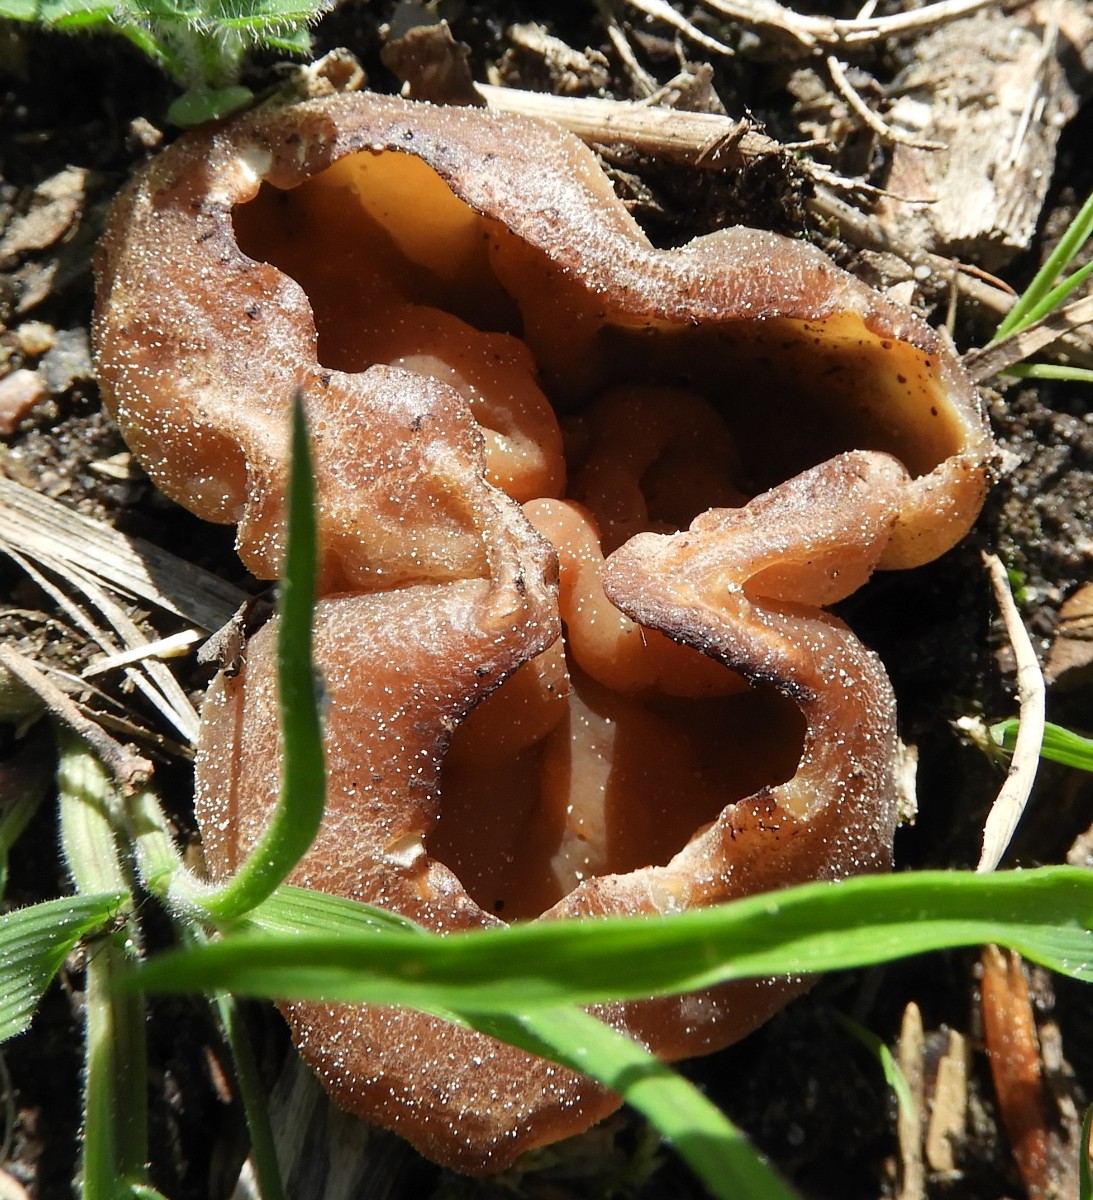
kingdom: Fungi
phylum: Ascomycota
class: Pezizomycetes
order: Pezizales
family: Pezizaceae
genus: Peziza
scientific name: Peziza vesiculosa
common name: blære-bægersvamp
